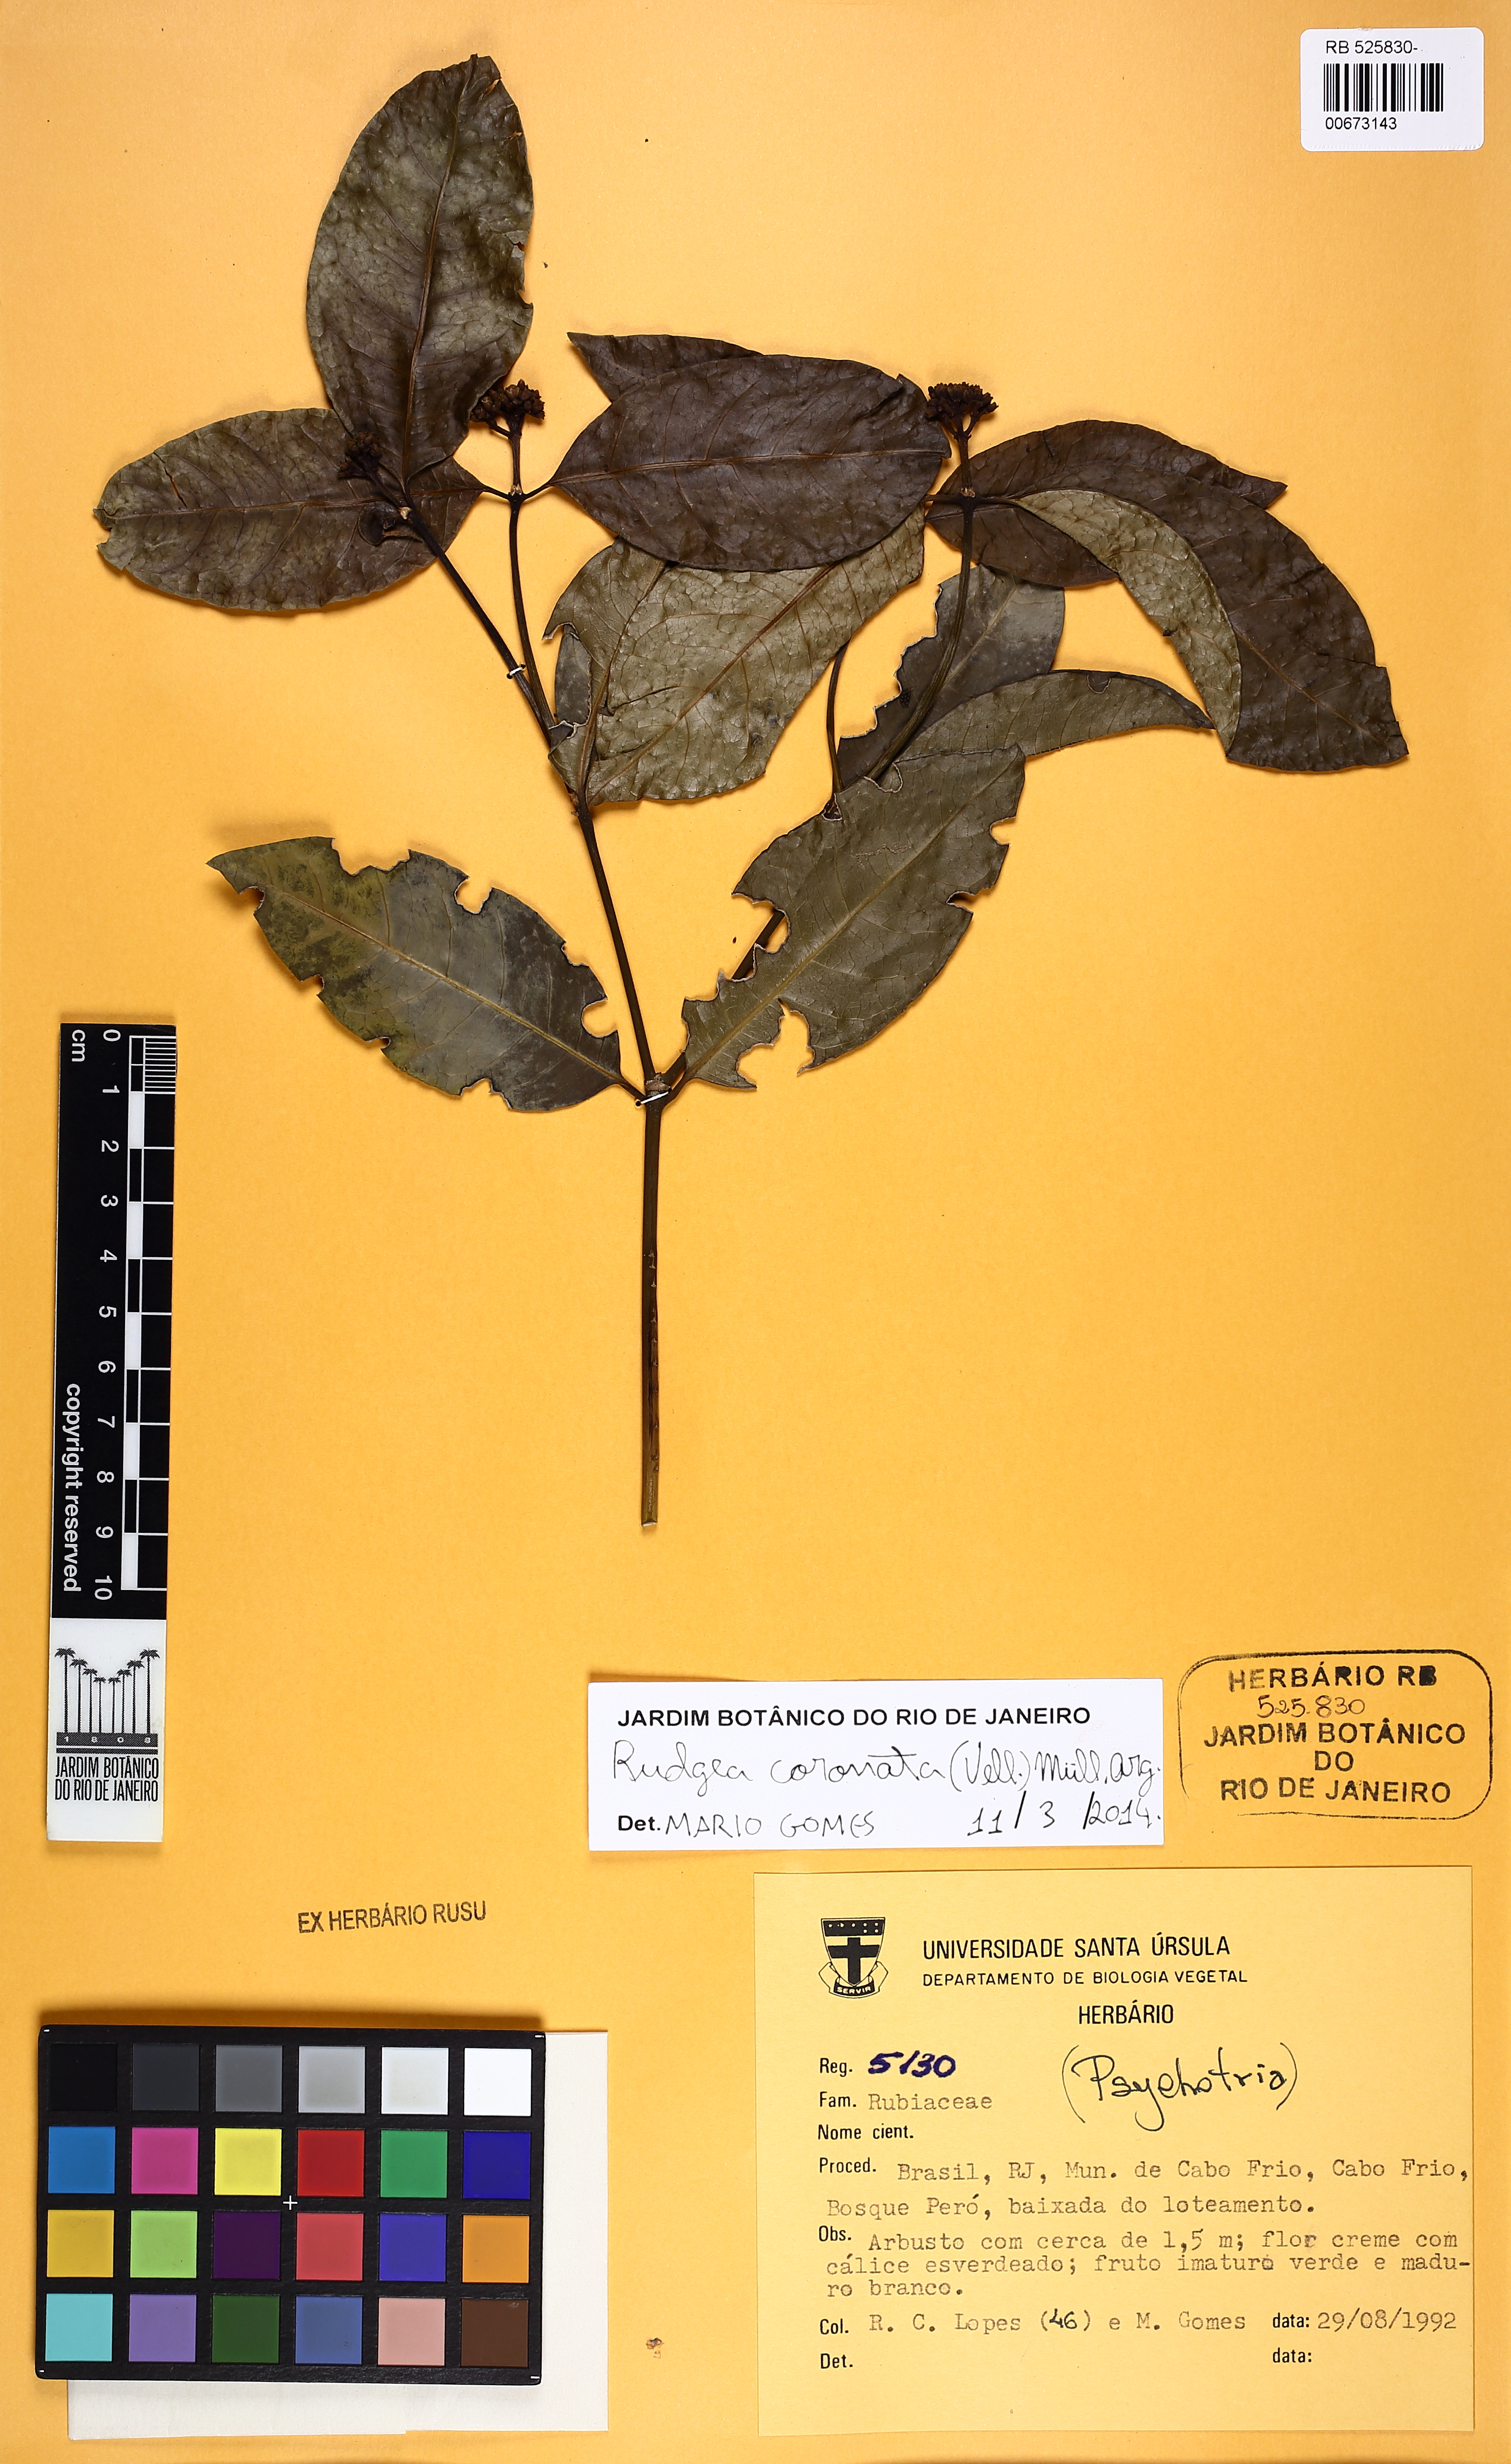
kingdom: Plantae
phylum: Tracheophyta
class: Magnoliopsida
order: Gentianales
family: Rubiaceae
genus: Rudgea
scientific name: Rudgea coronata
